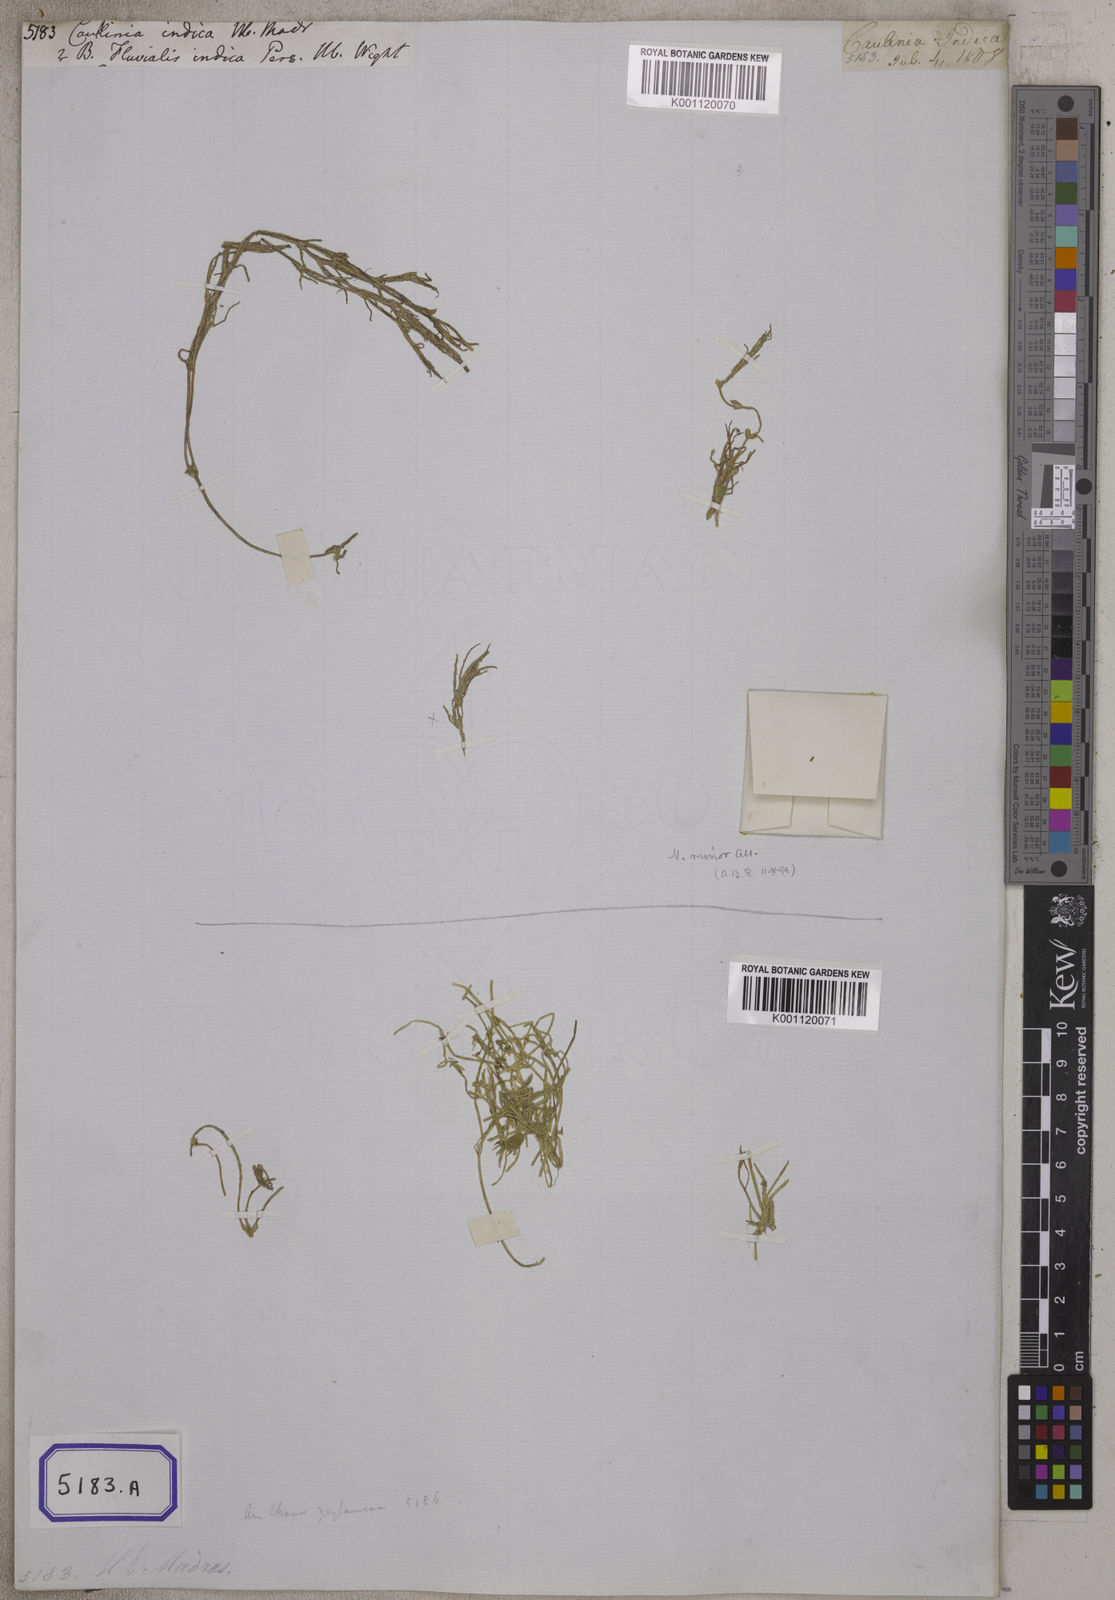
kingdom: Plantae
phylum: Tracheophyta
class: Liliopsida
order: Alismatales
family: Hydrocharitaceae
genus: Najas
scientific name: Najas indica
